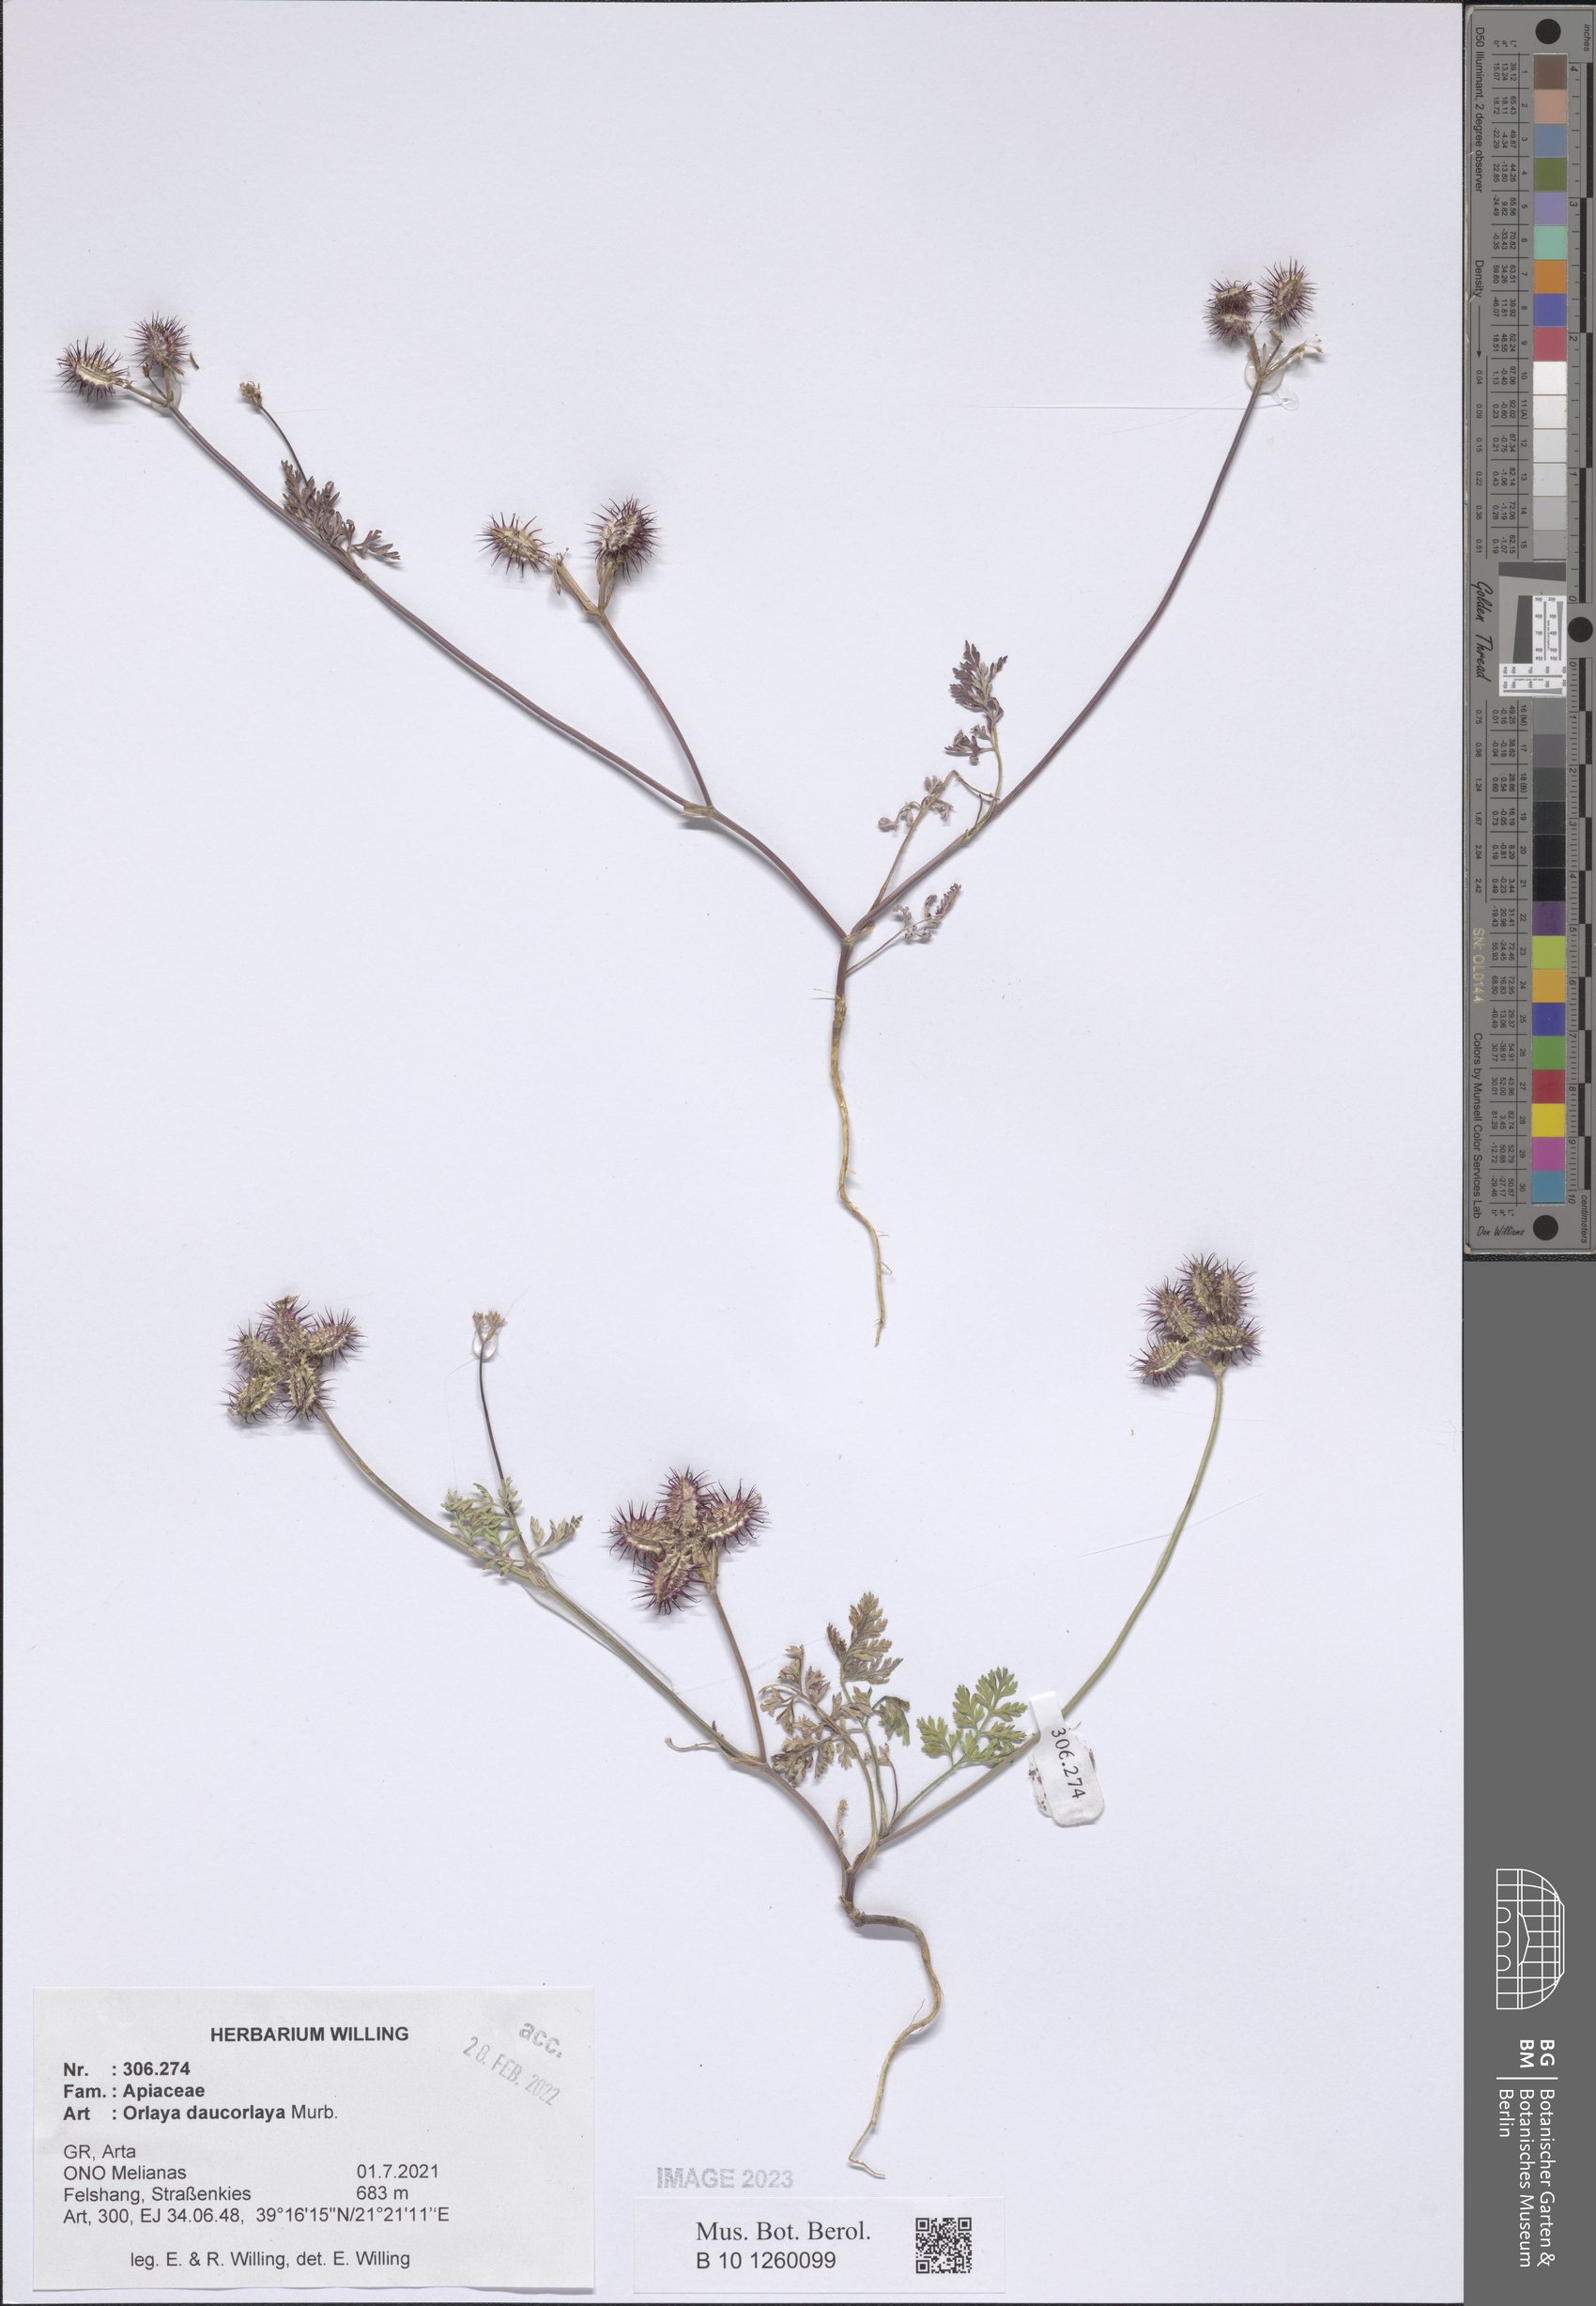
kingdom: Plantae
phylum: Tracheophyta
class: Magnoliopsida
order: Apiales
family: Apiaceae
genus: Orlaya
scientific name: Orlaya daucorlaya
